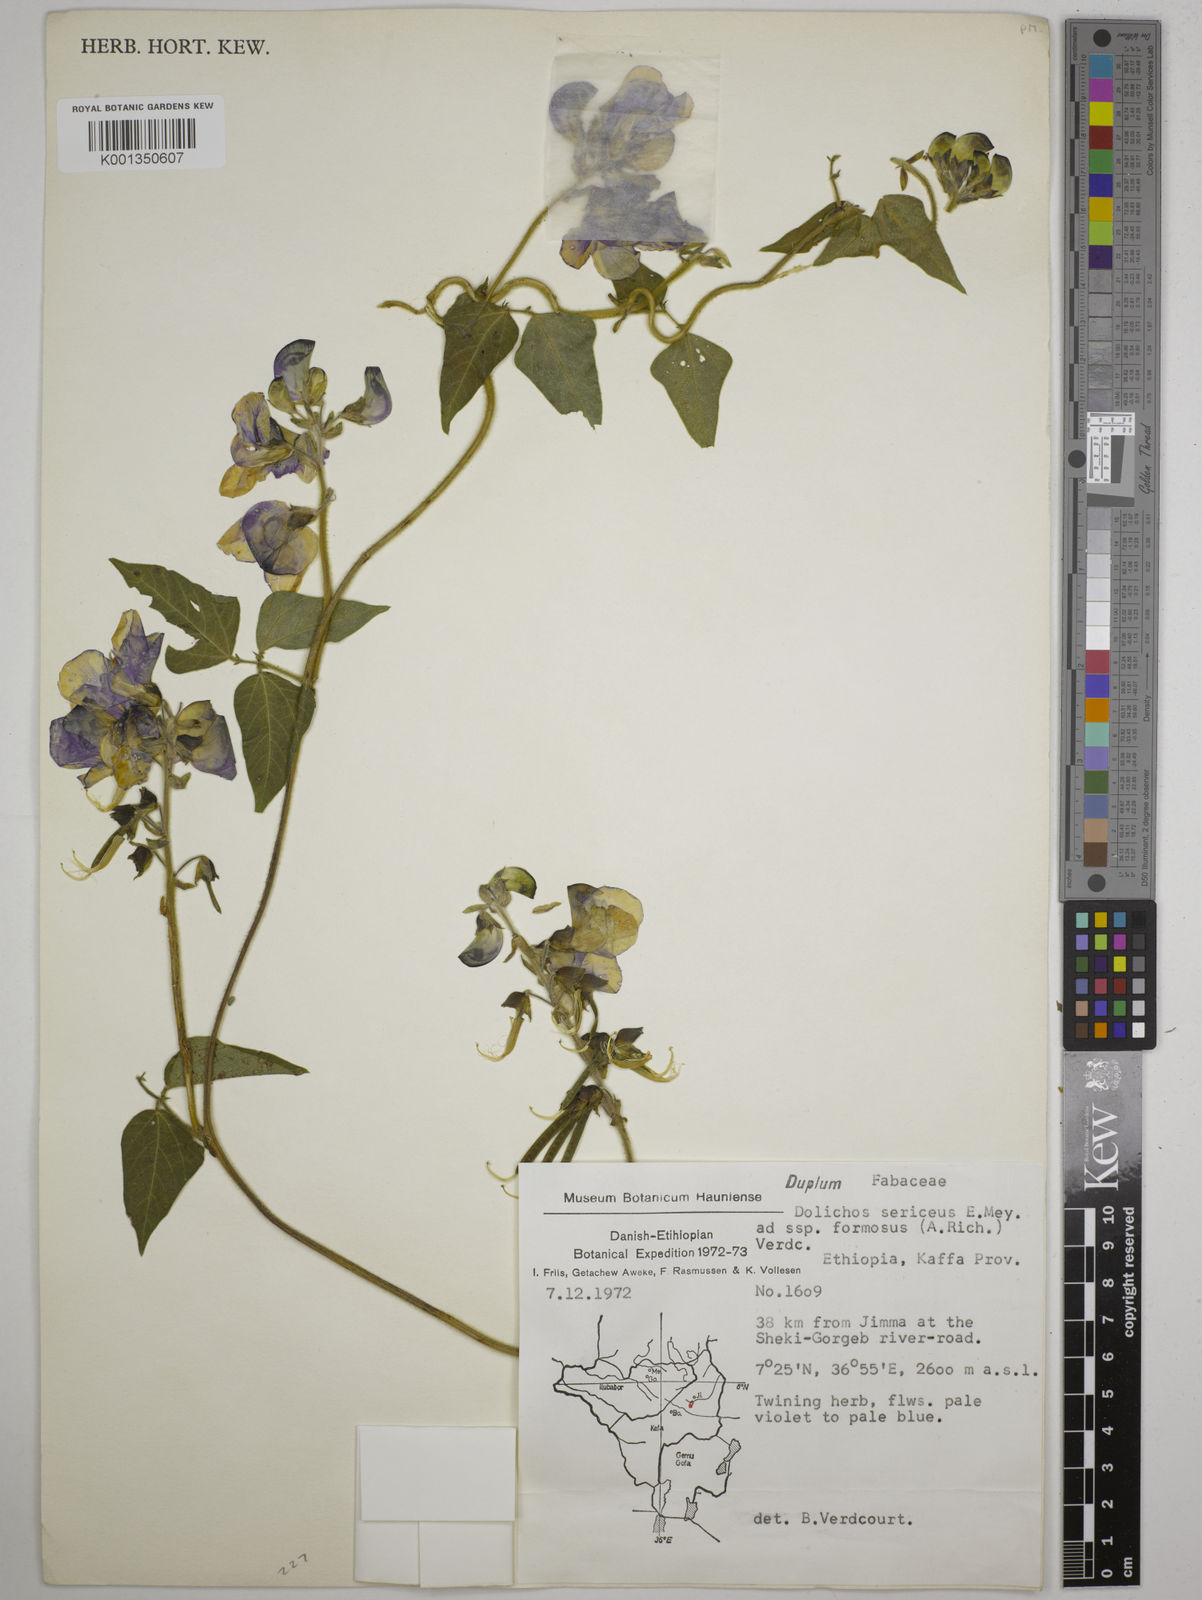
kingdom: Plantae
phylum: Tracheophyta
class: Magnoliopsida
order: Fabales
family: Fabaceae
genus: Dolichos
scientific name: Dolichos
